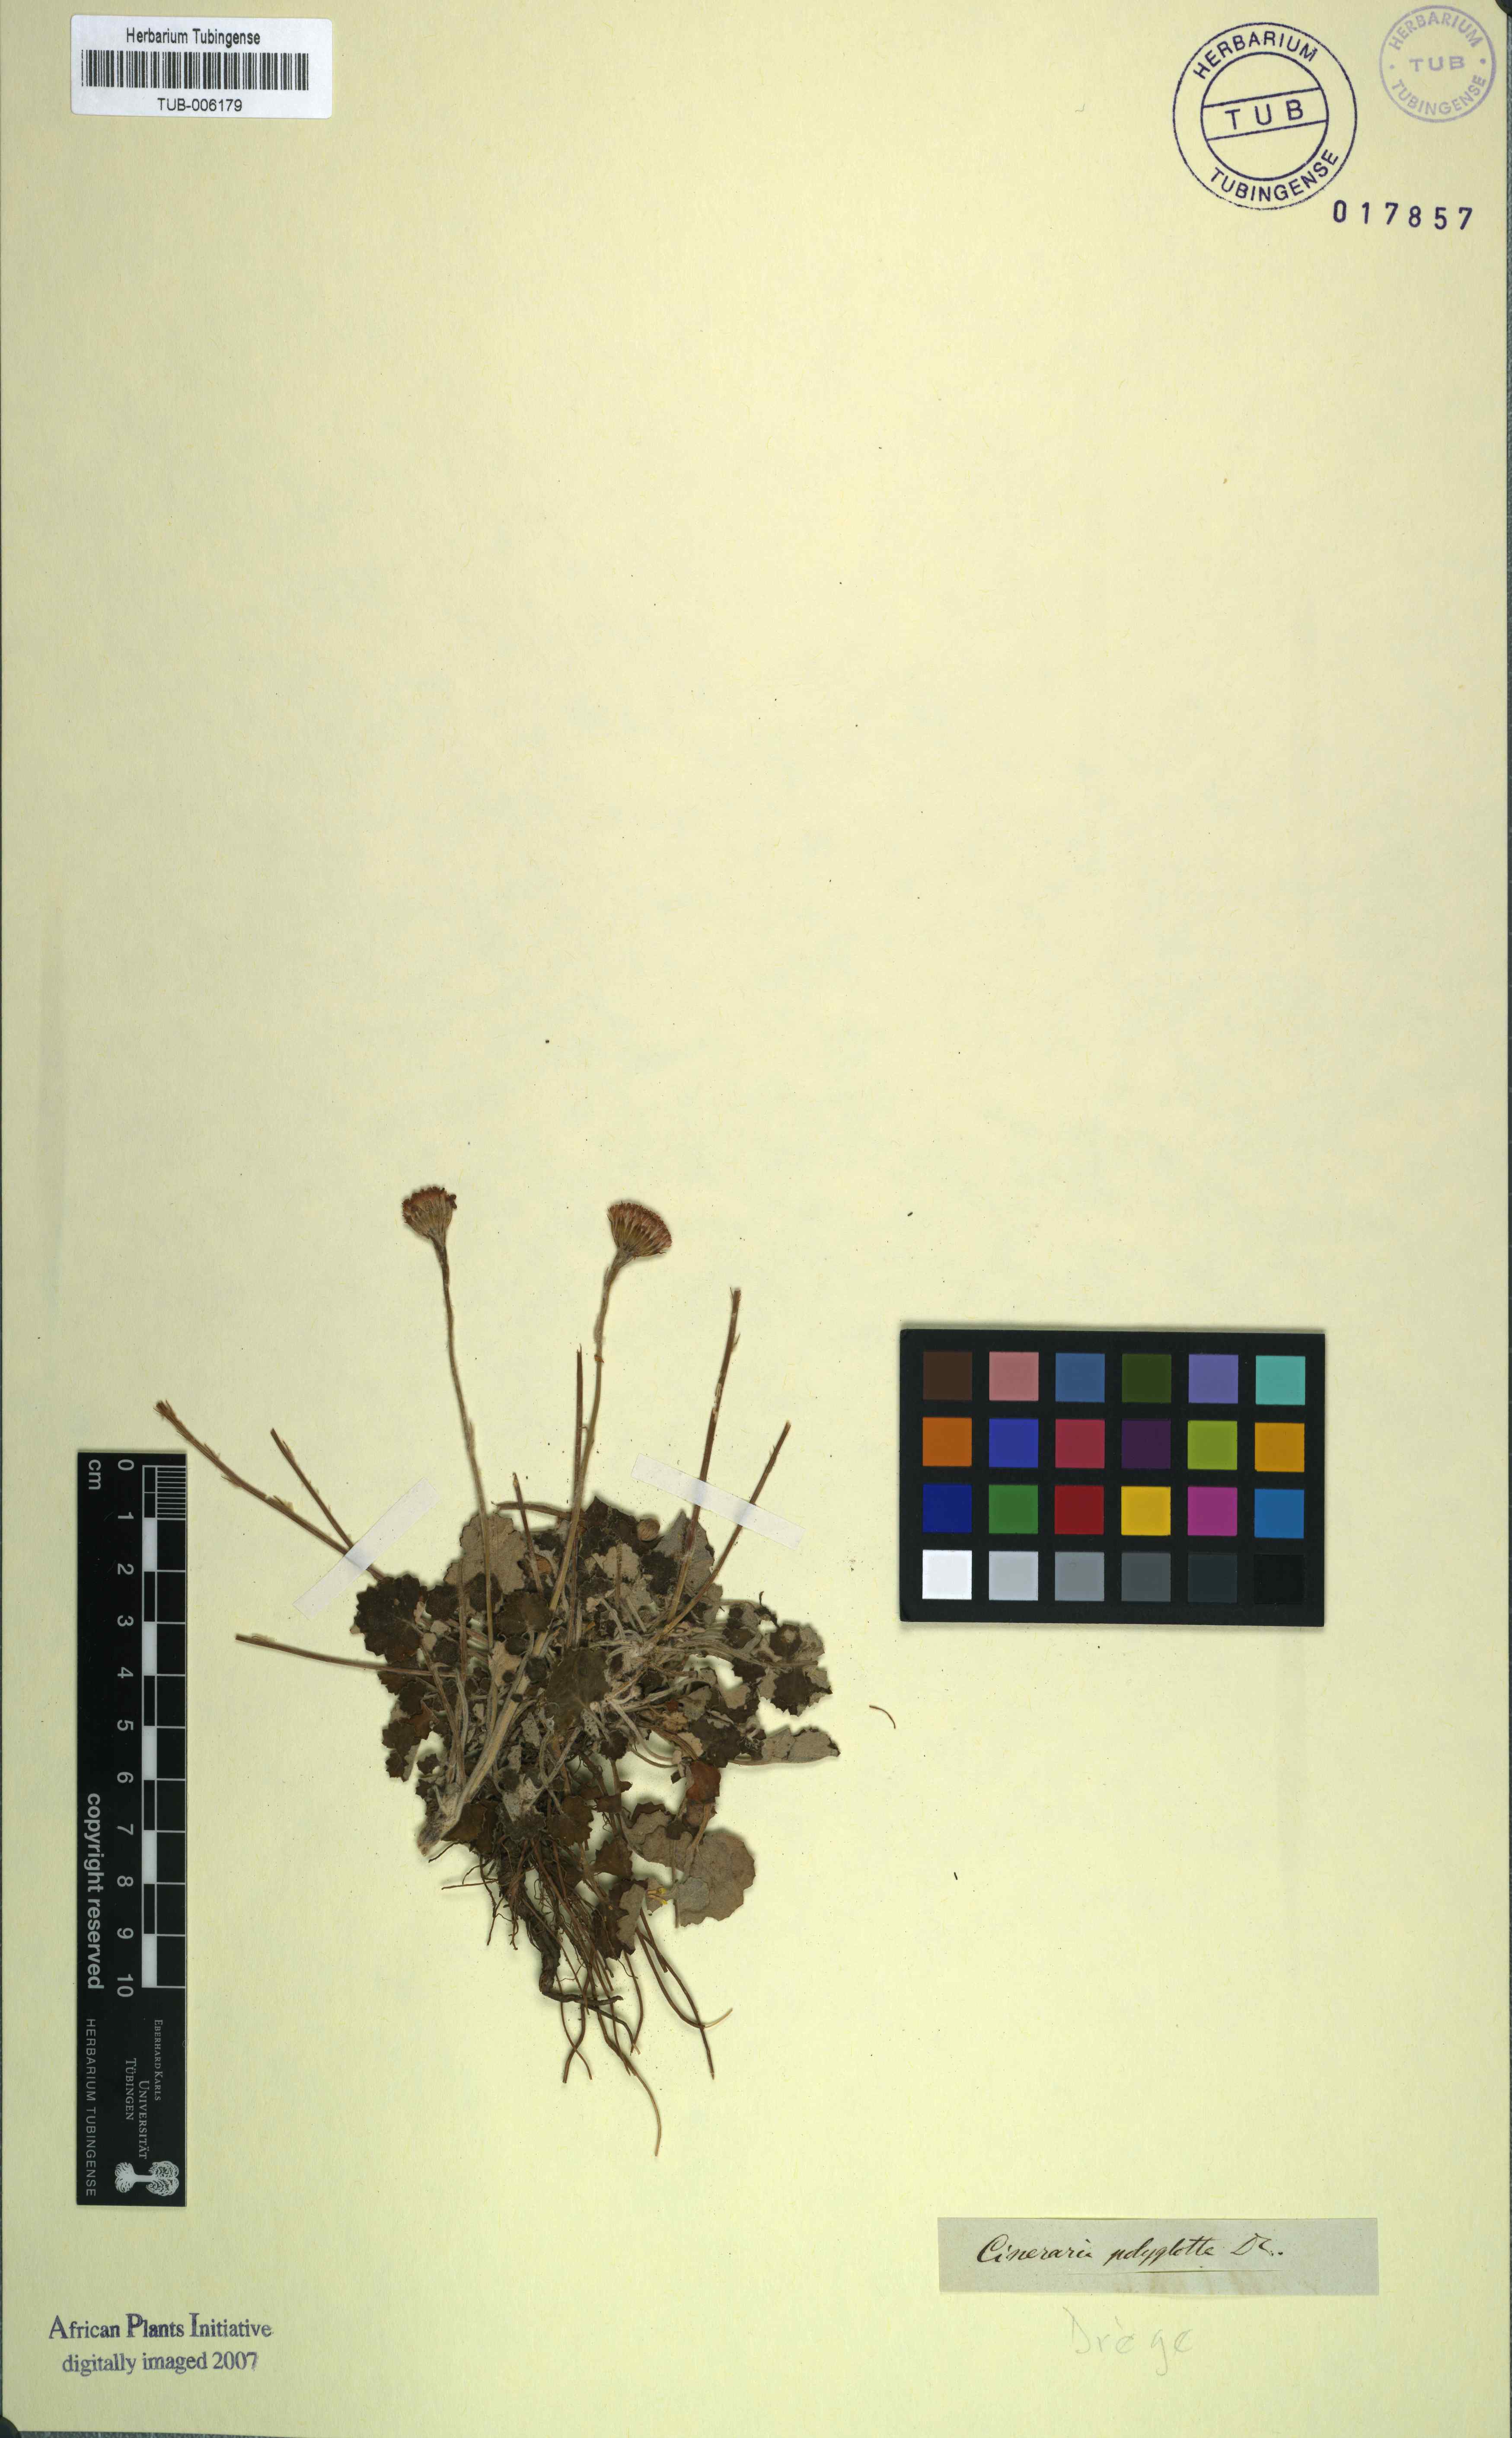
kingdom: Plantae
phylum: Tracheophyta
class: Magnoliopsida
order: Asterales
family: Asteraceae
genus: Cineraria
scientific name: Cineraria mollis
